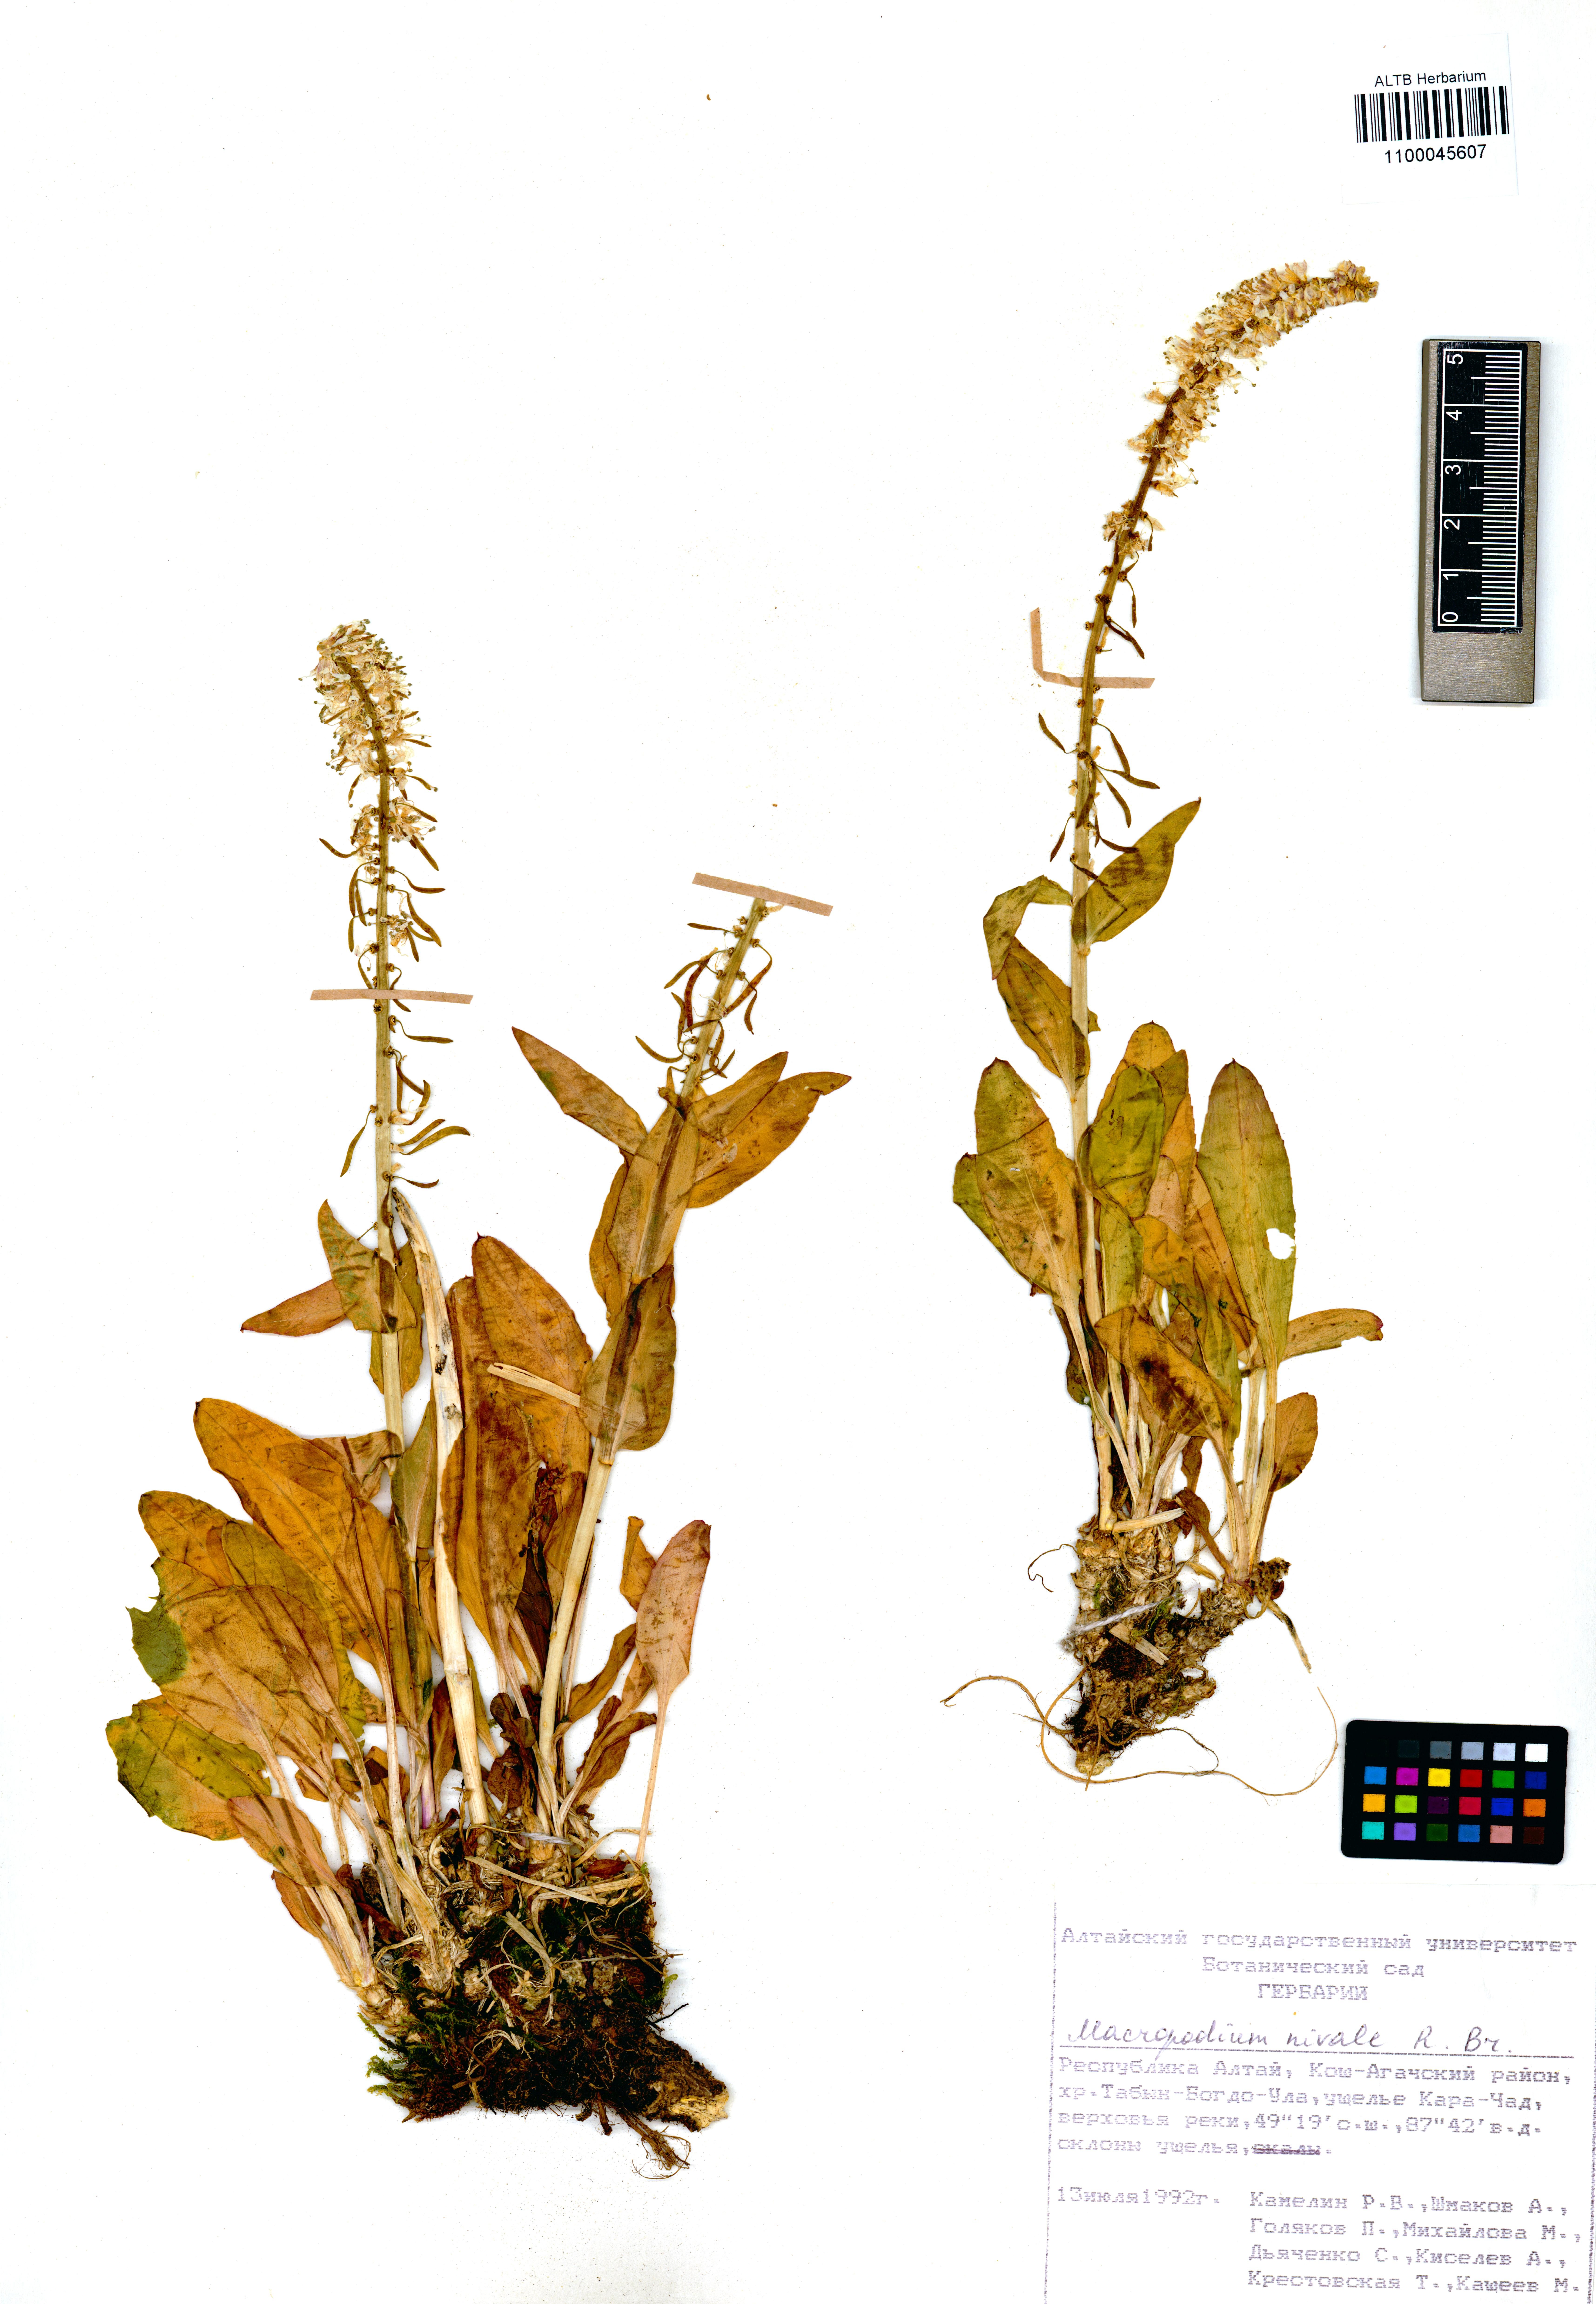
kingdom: Plantae
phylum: Tracheophyta
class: Magnoliopsida
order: Brassicales
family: Brassicaceae
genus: Macropodium
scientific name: Macropodium nivale
